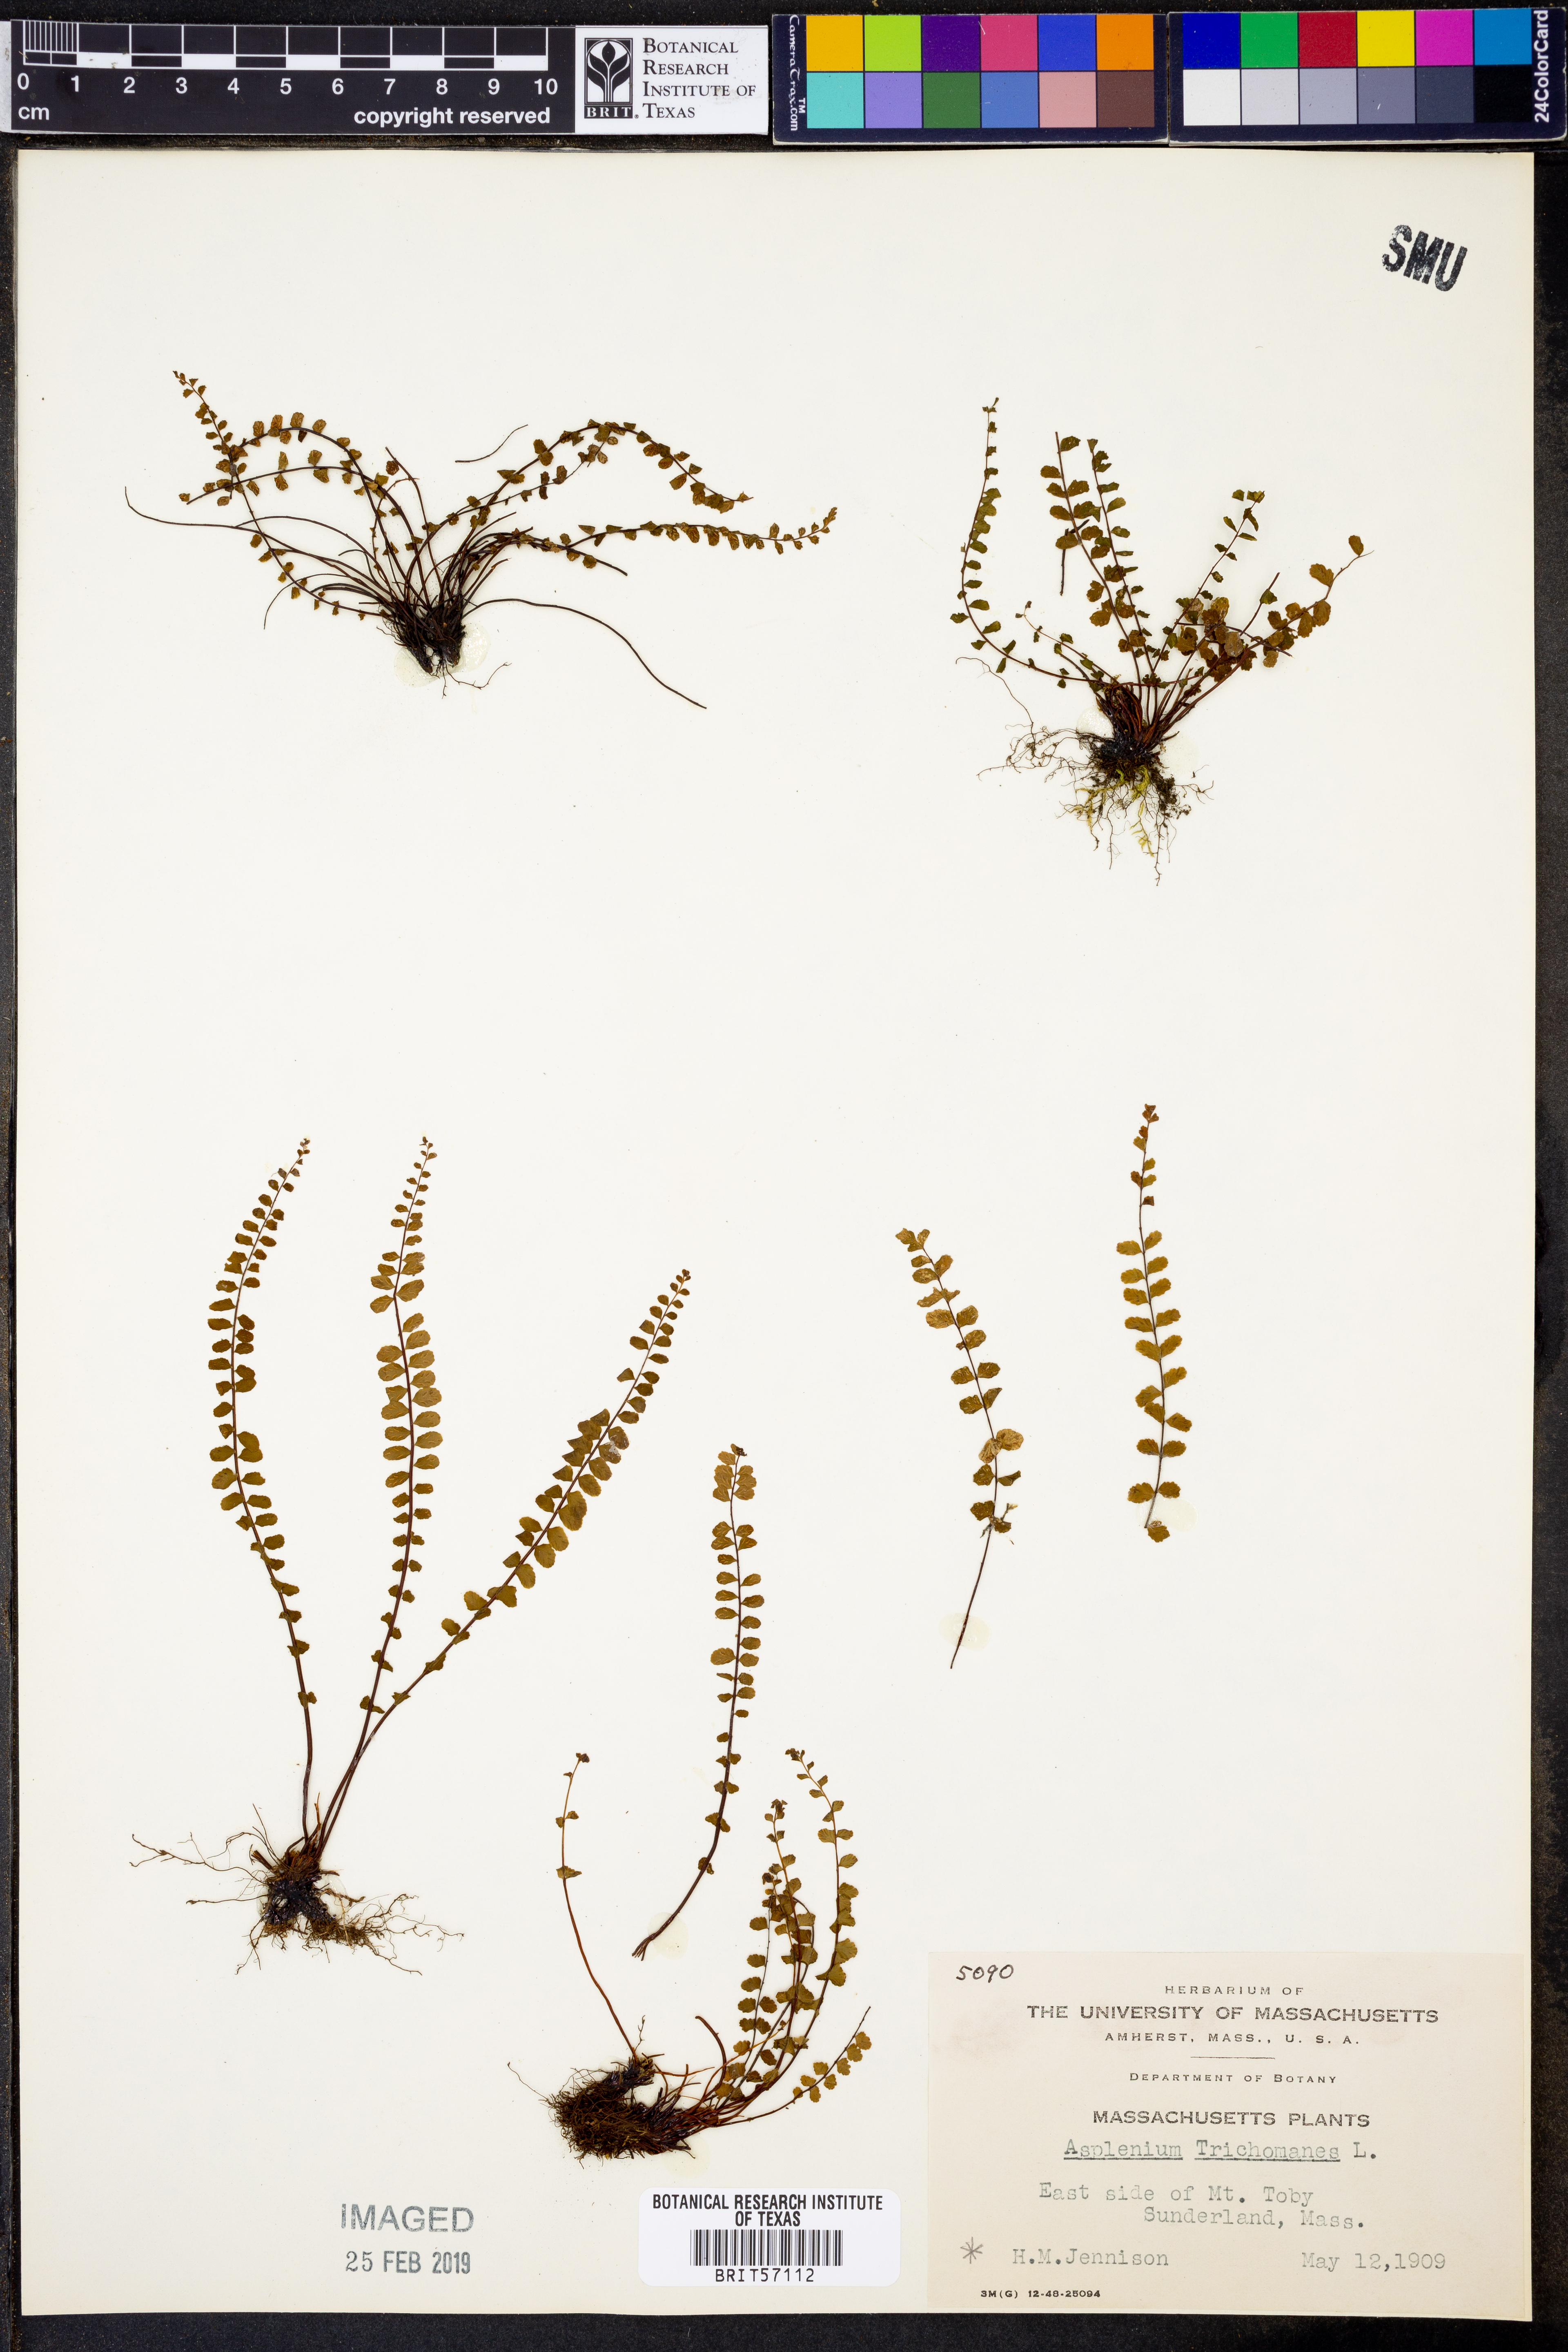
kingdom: Plantae
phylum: Tracheophyta
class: Polypodiopsida
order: Polypodiales
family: Aspleniaceae
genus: Asplenium
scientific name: Asplenium trichomanes
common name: Maidenhair spleenwort
